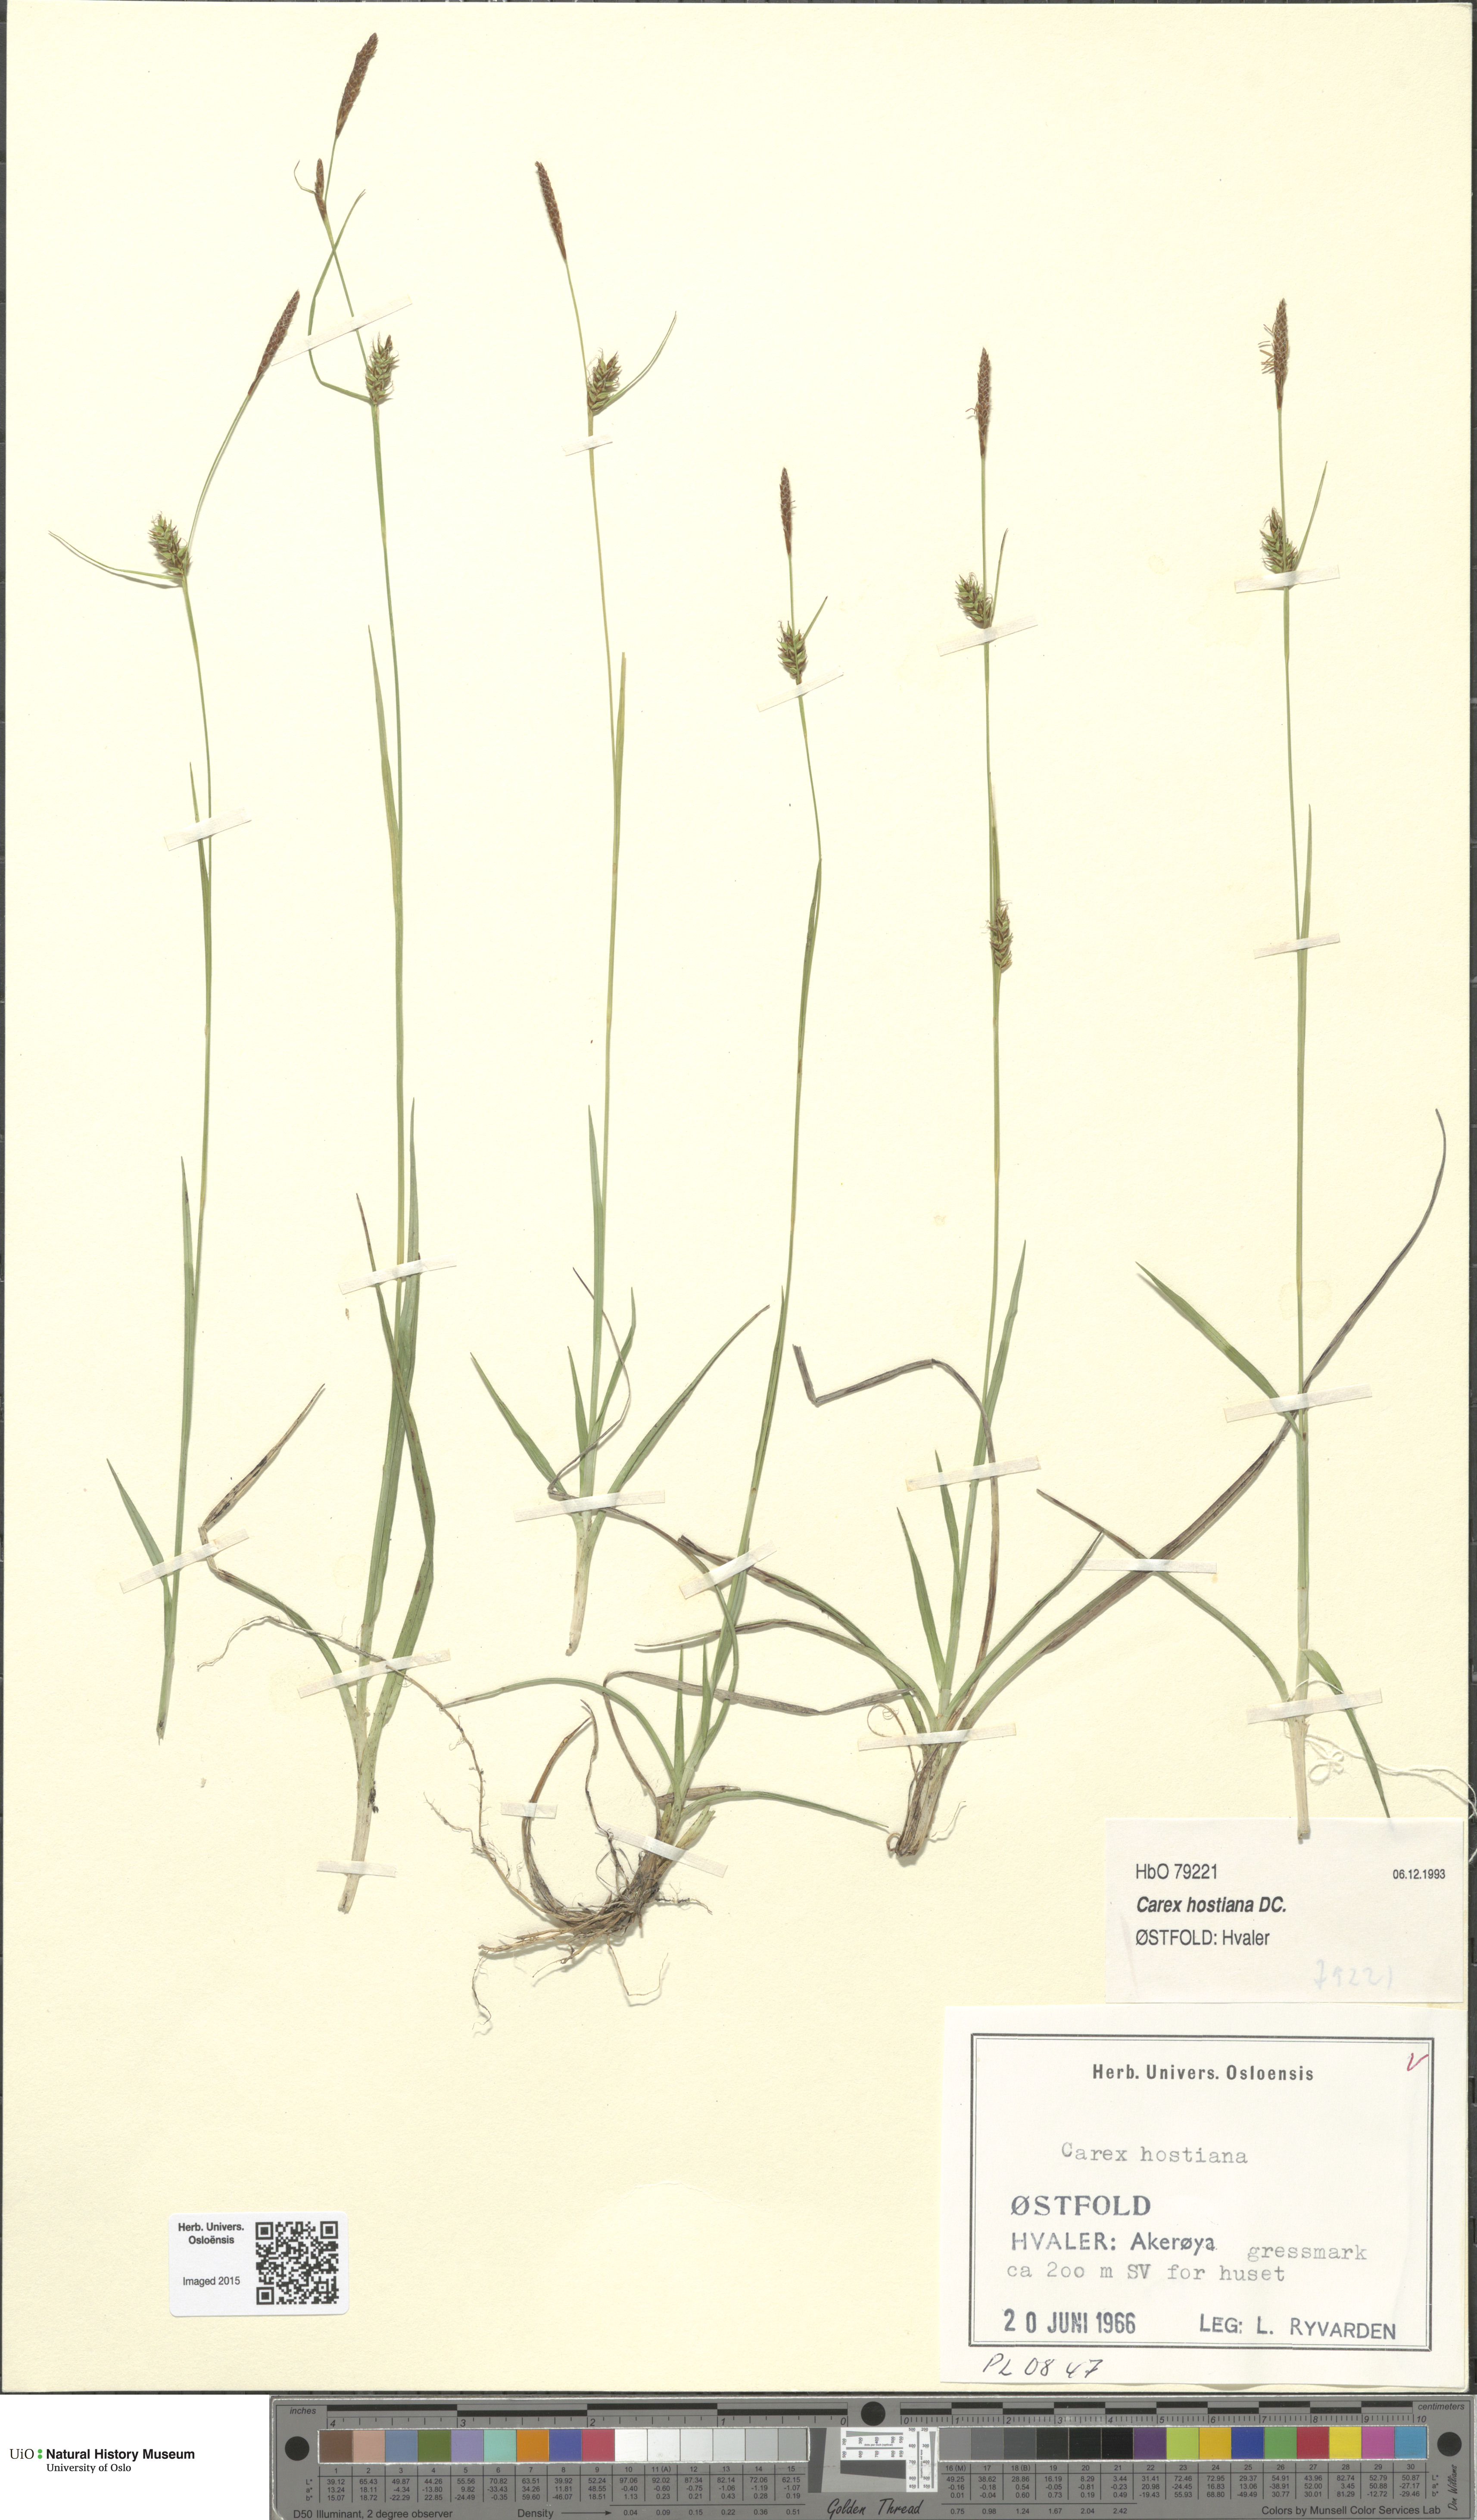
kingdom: Plantae
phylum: Tracheophyta
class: Liliopsida
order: Poales
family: Cyperaceae
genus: Carex
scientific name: Carex hostiana
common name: Tawny sedge
